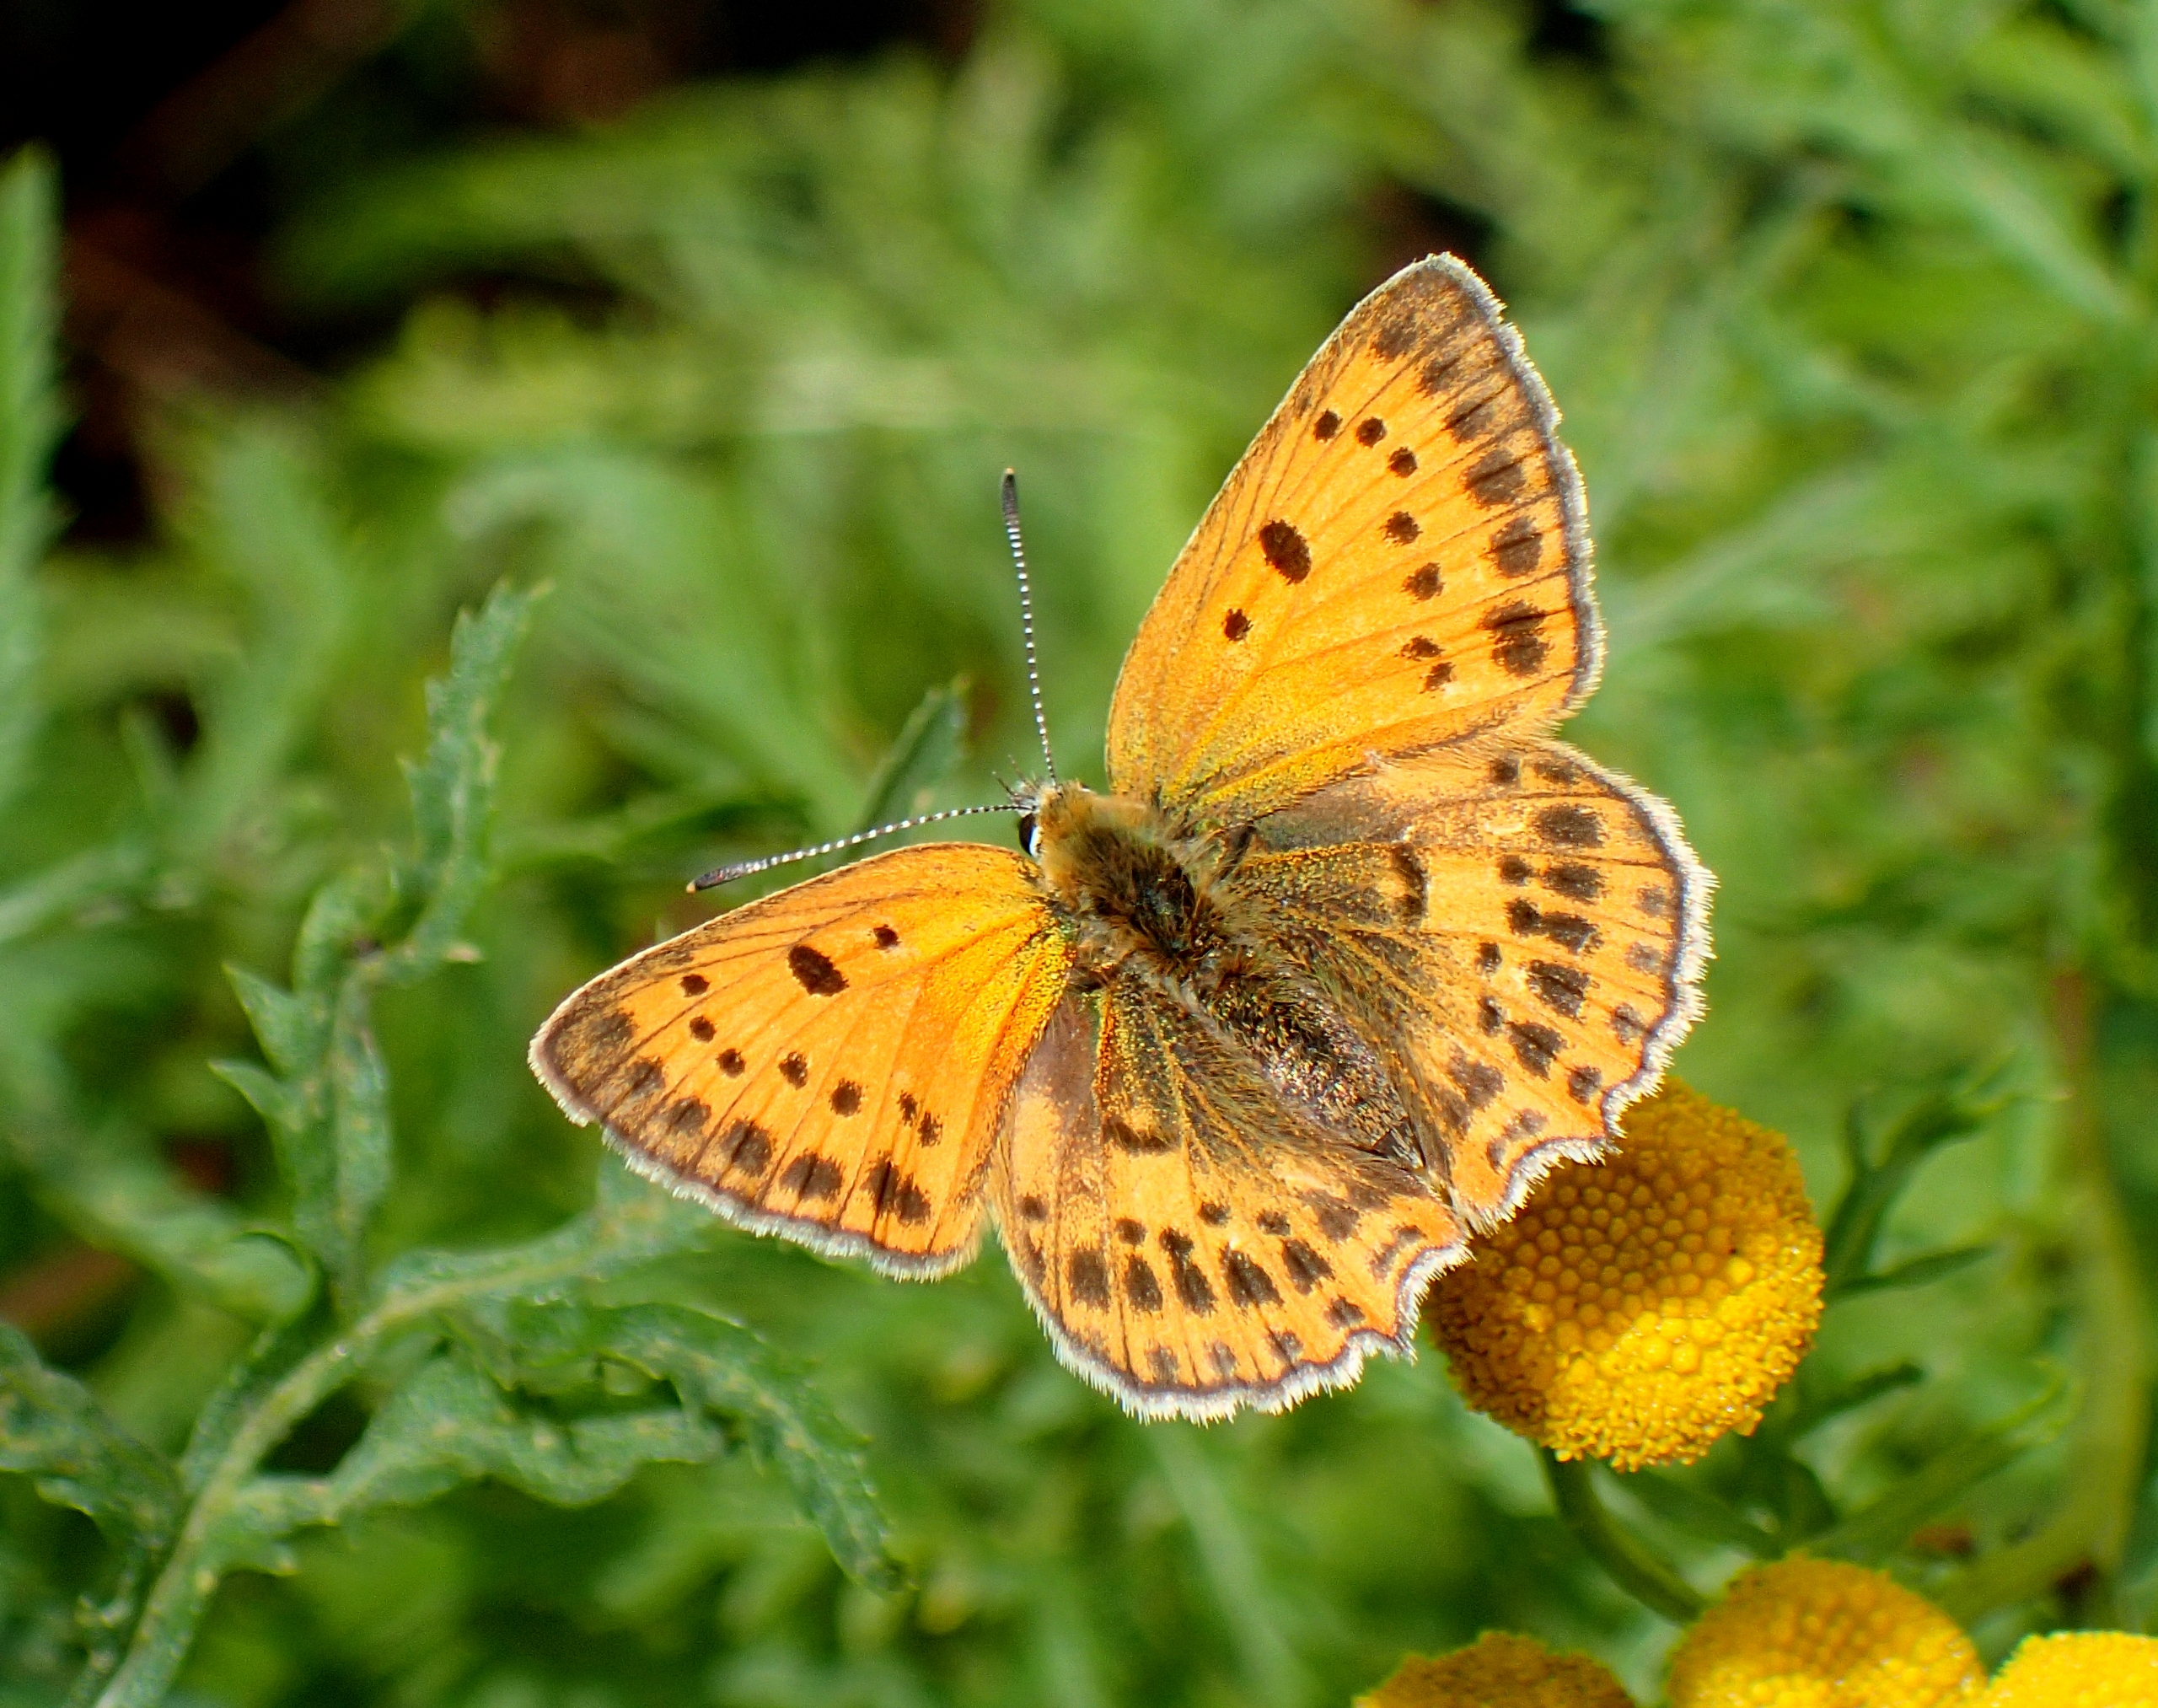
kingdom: Animalia
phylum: Arthropoda
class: Insecta
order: Lepidoptera
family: Lycaenidae
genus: Lycaena
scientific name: Lycaena virgaureae
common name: Dukatsommerfugl
